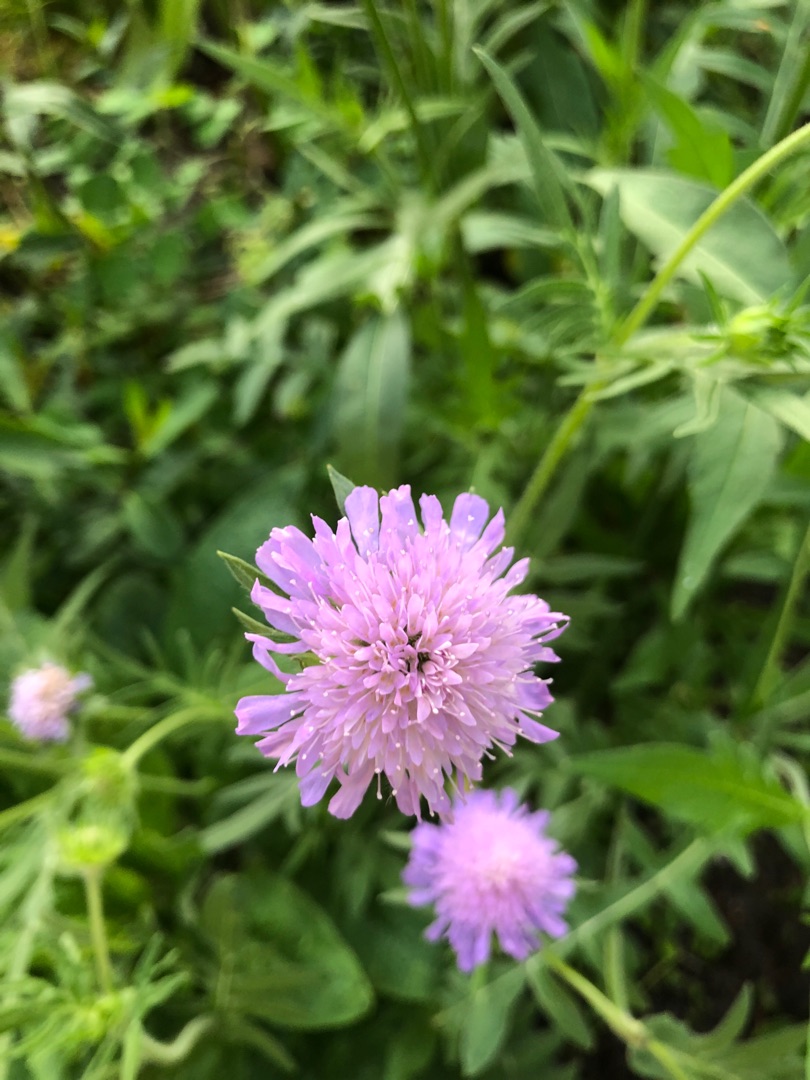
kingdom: Plantae
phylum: Tracheophyta
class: Magnoliopsida
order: Dipsacales
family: Caprifoliaceae
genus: Knautia
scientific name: Knautia arvensis
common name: Blåhat
